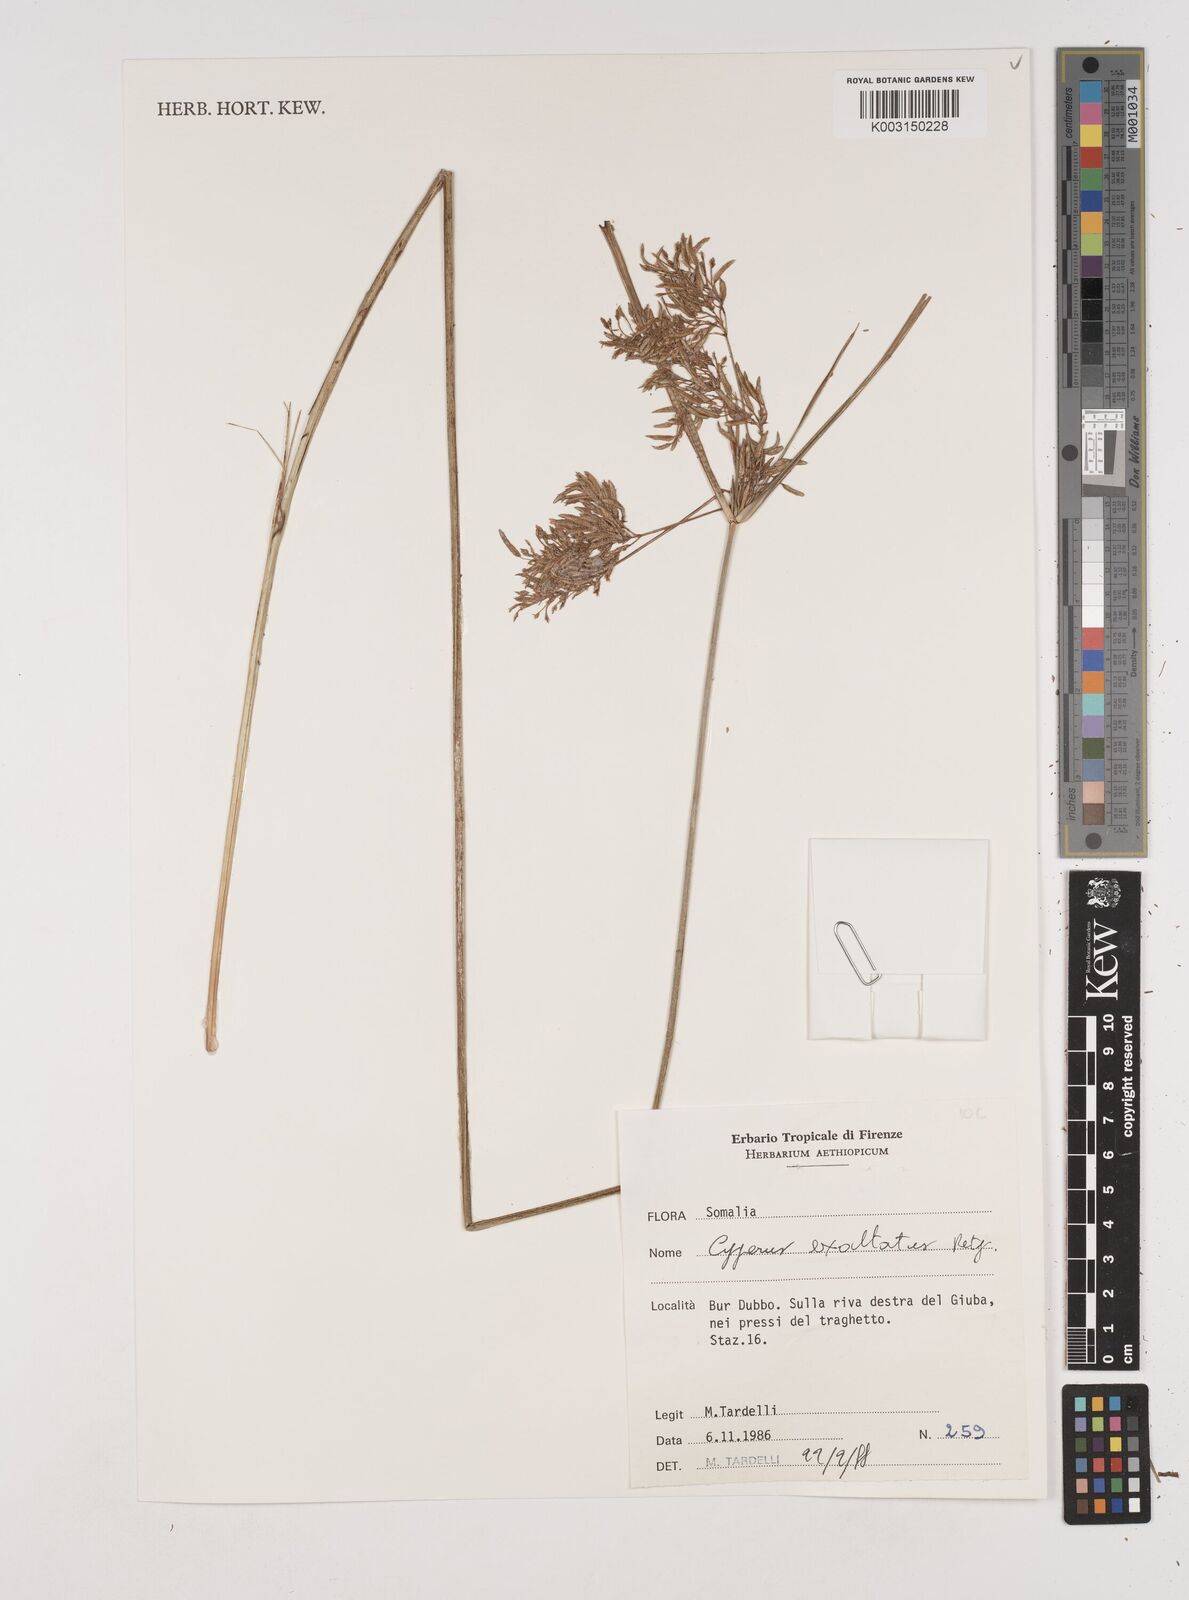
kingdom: Plantae
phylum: Tracheophyta
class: Liliopsida
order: Poales
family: Cyperaceae
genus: Cyperus
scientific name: Cyperus exaltatus
